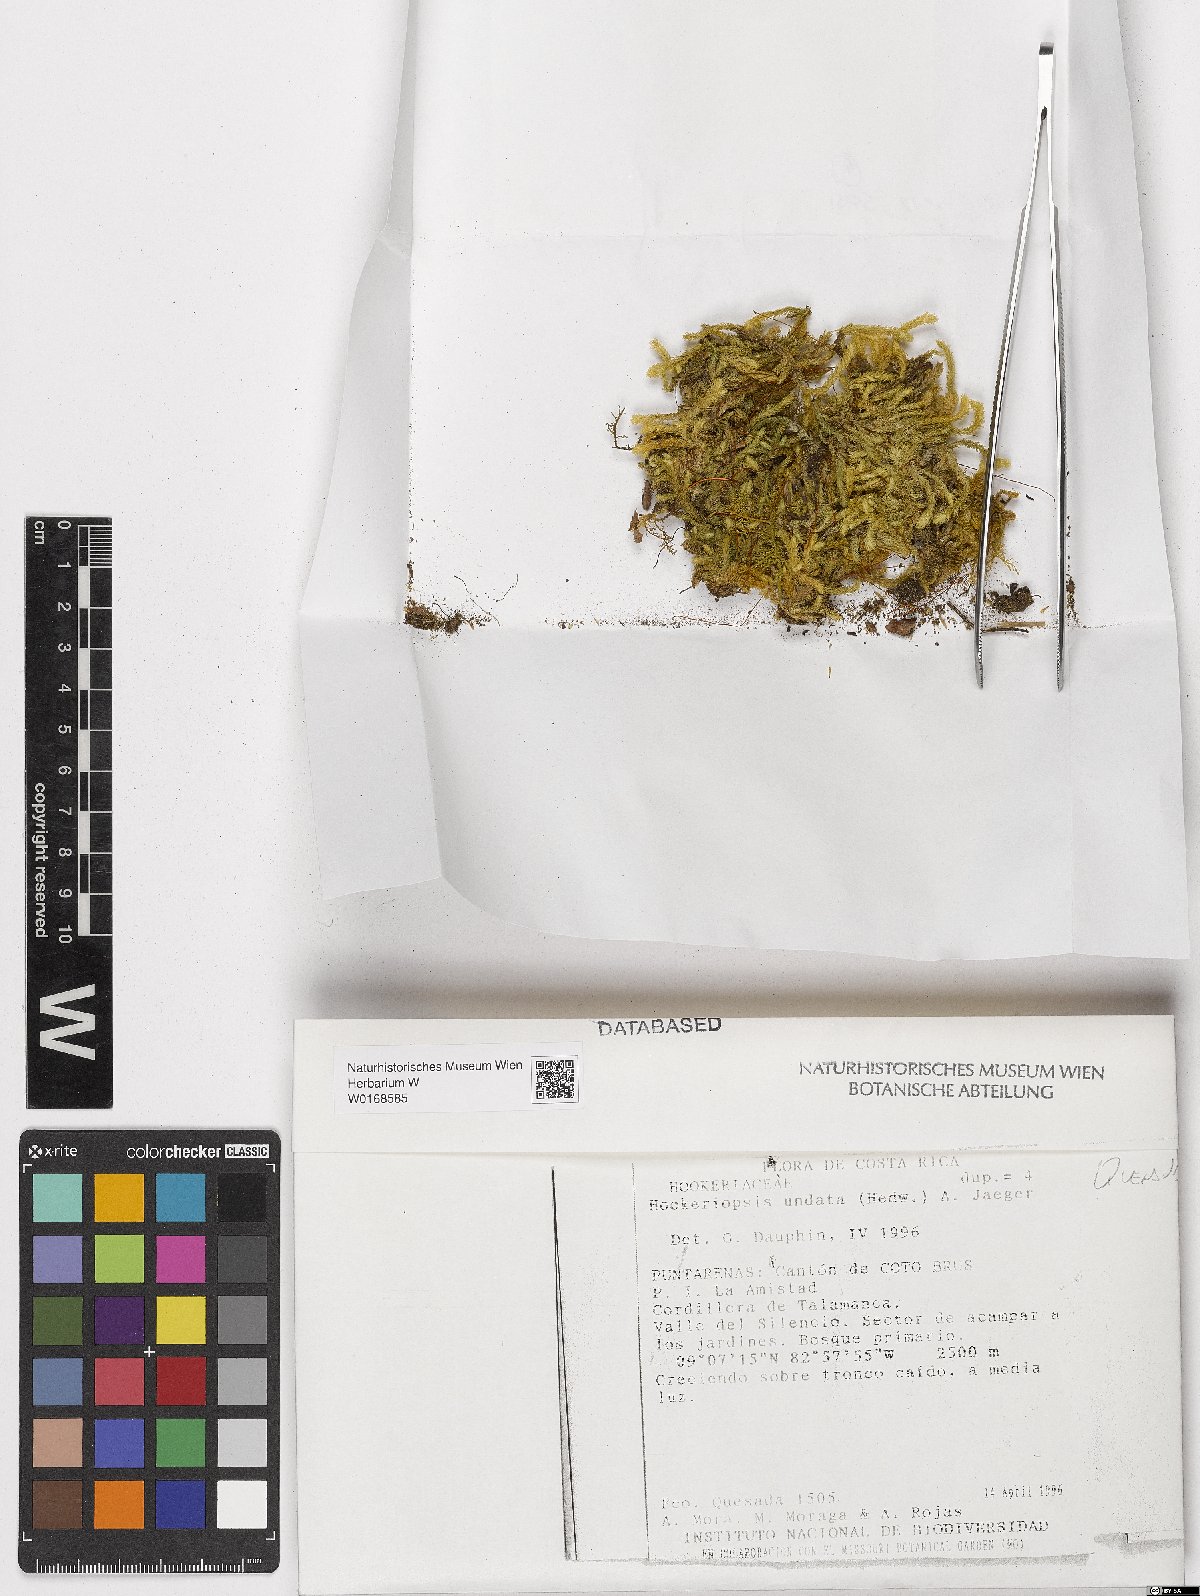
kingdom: Plantae
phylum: Bryophyta
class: Bryopsida
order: Hookeriales
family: Pilotrichaceae
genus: Hookeriopsis
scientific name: Hookeriopsis
